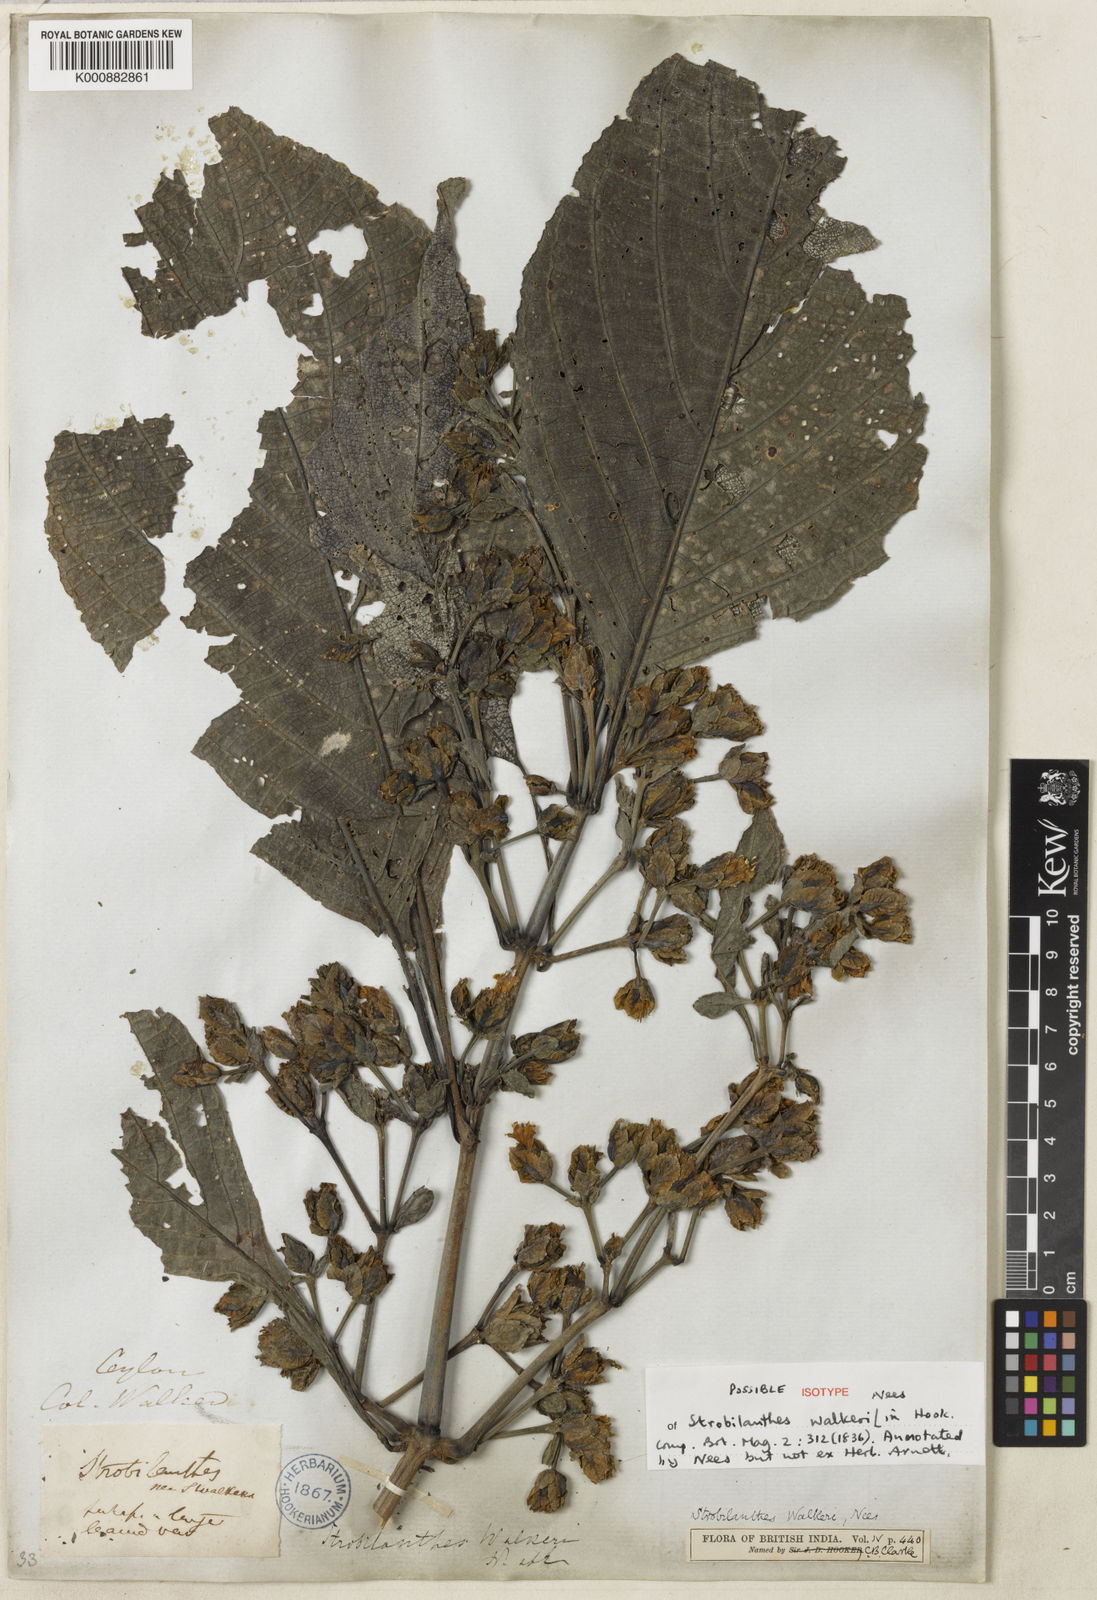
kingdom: Plantae
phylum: Tracheophyta
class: Magnoliopsida
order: Lamiales
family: Acanthaceae
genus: Strobilanthes
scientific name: Strobilanthes walkeri
